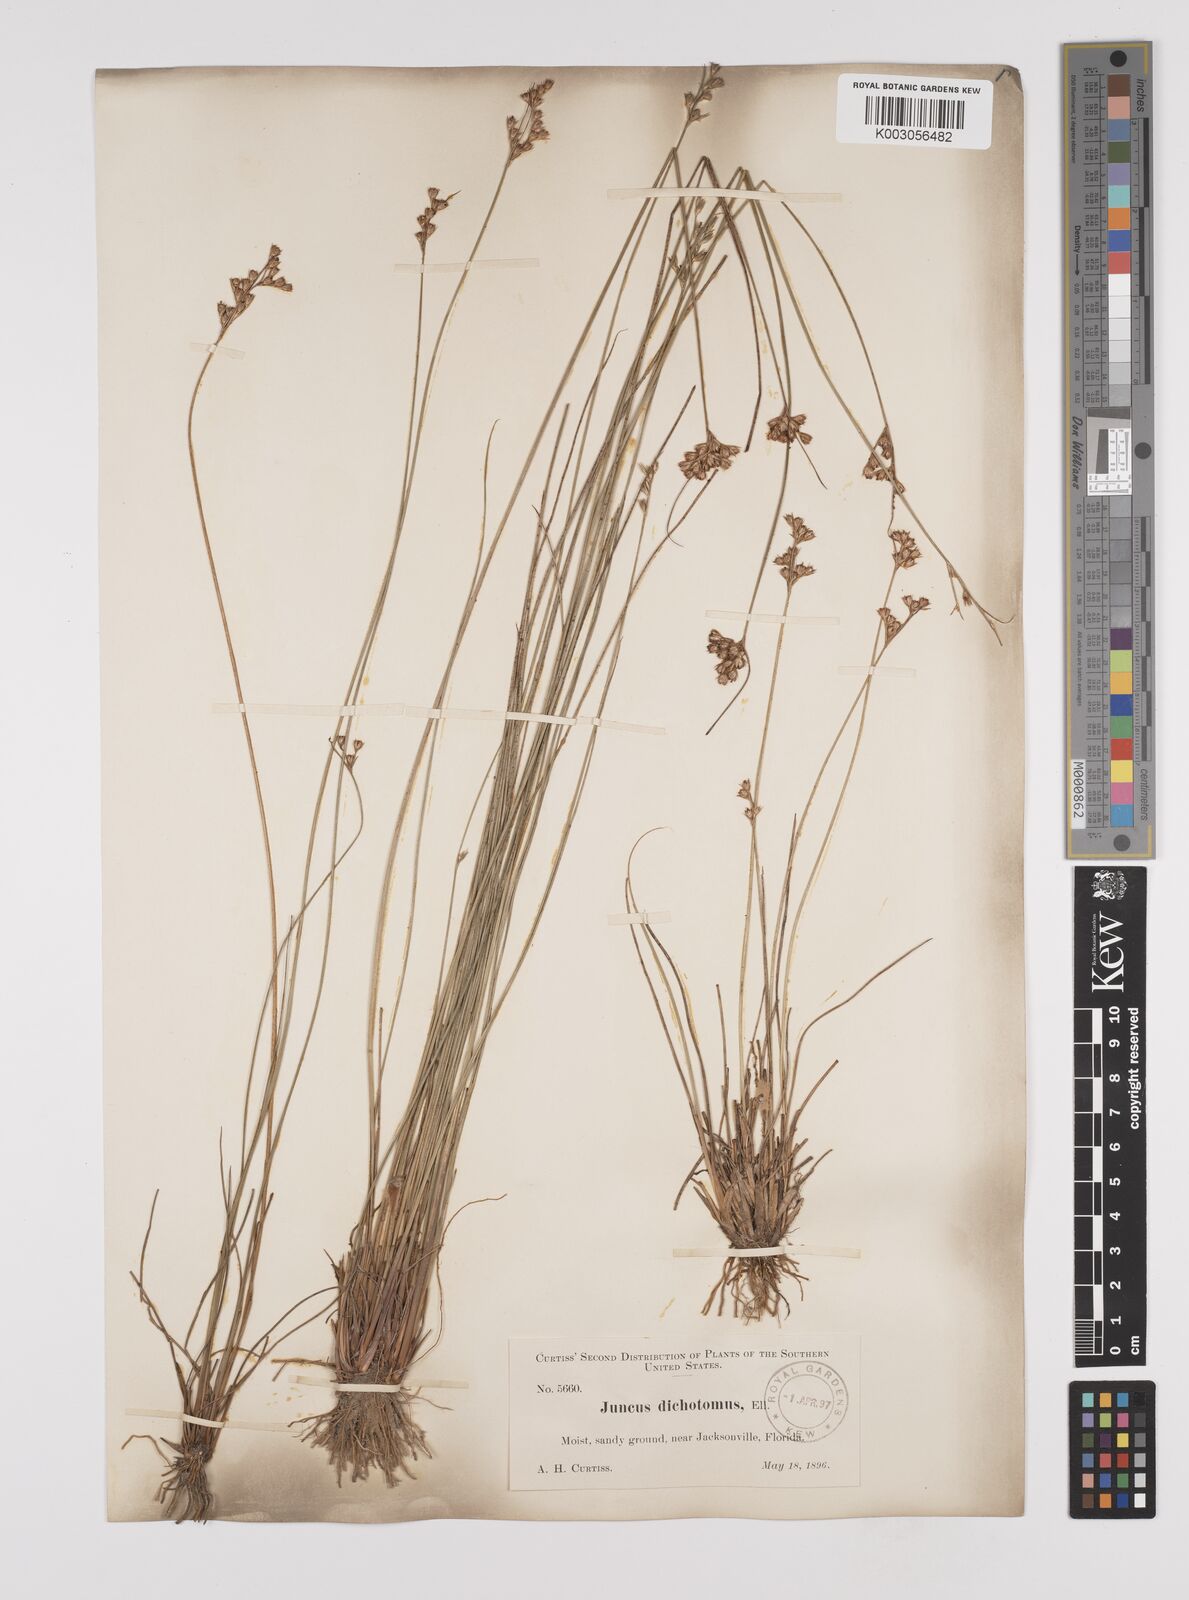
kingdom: Plantae
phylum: Tracheophyta
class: Liliopsida
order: Poales
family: Juncaceae
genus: Juncus
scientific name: Juncus dichotomus
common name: Forked rush
